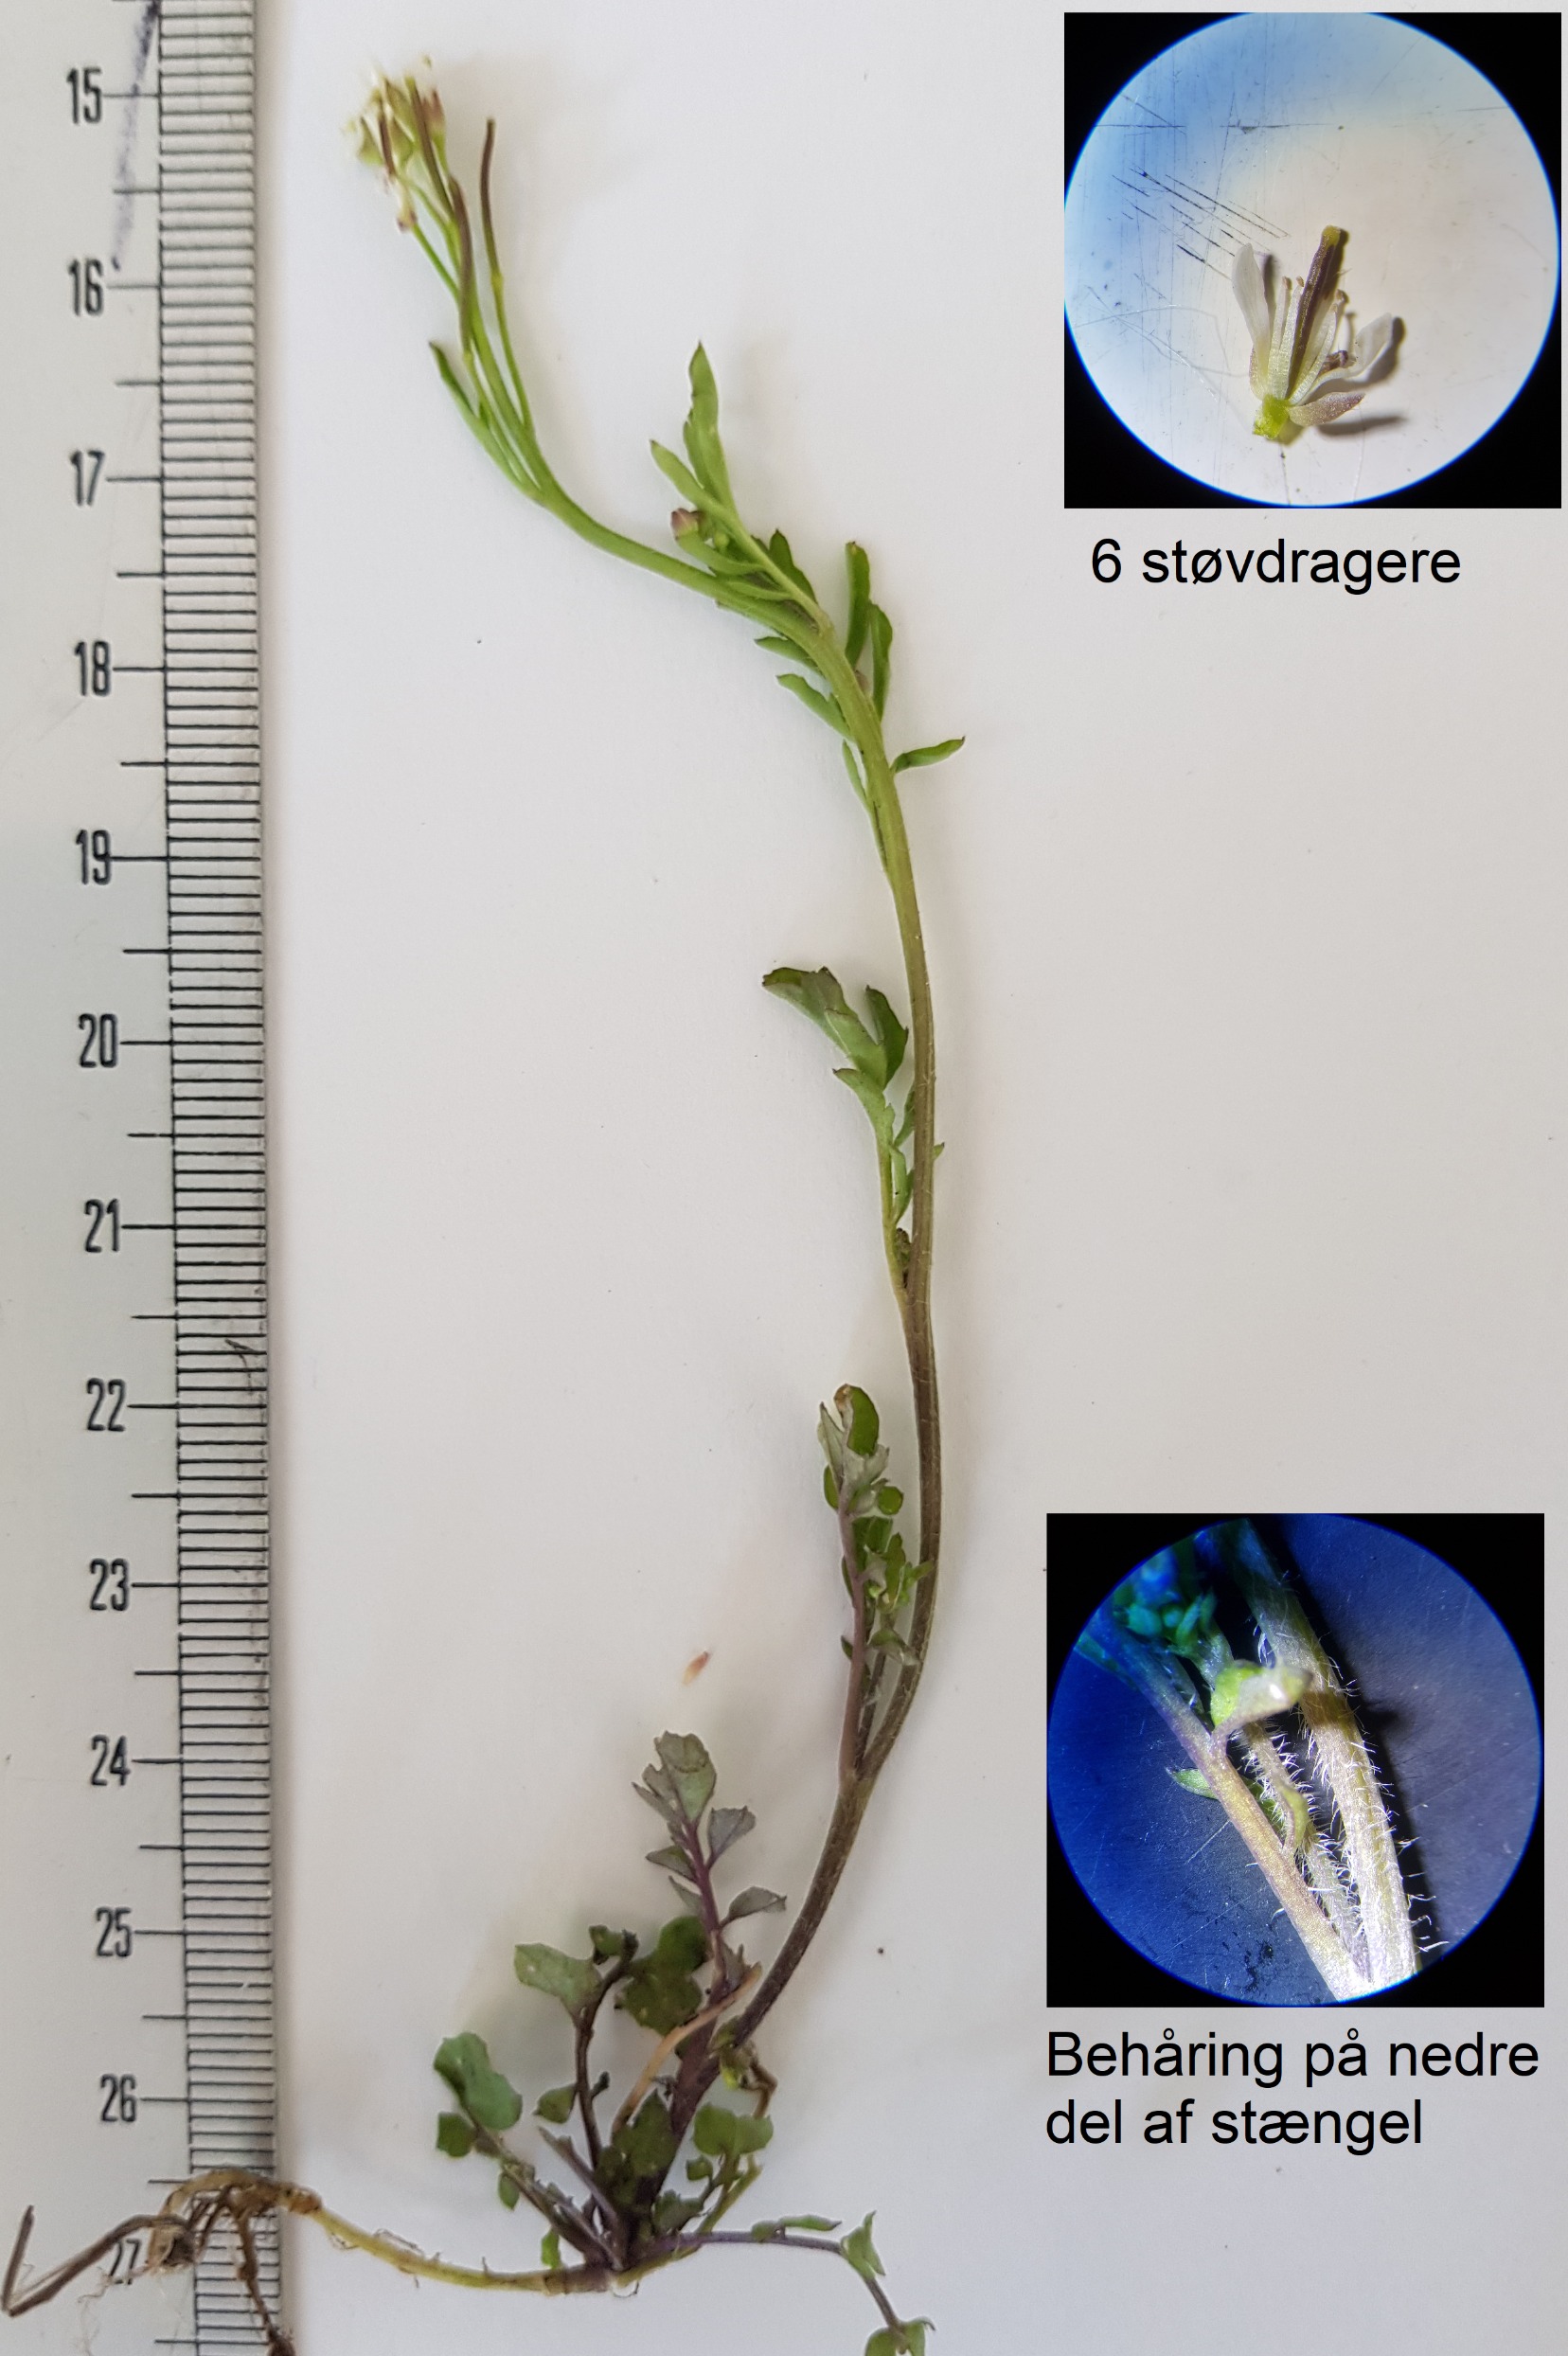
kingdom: Plantae
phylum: Tracheophyta
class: Magnoliopsida
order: Brassicales
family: Brassicaceae
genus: Cardamine
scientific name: Cardamine flexuosa
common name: Skov-springklap
